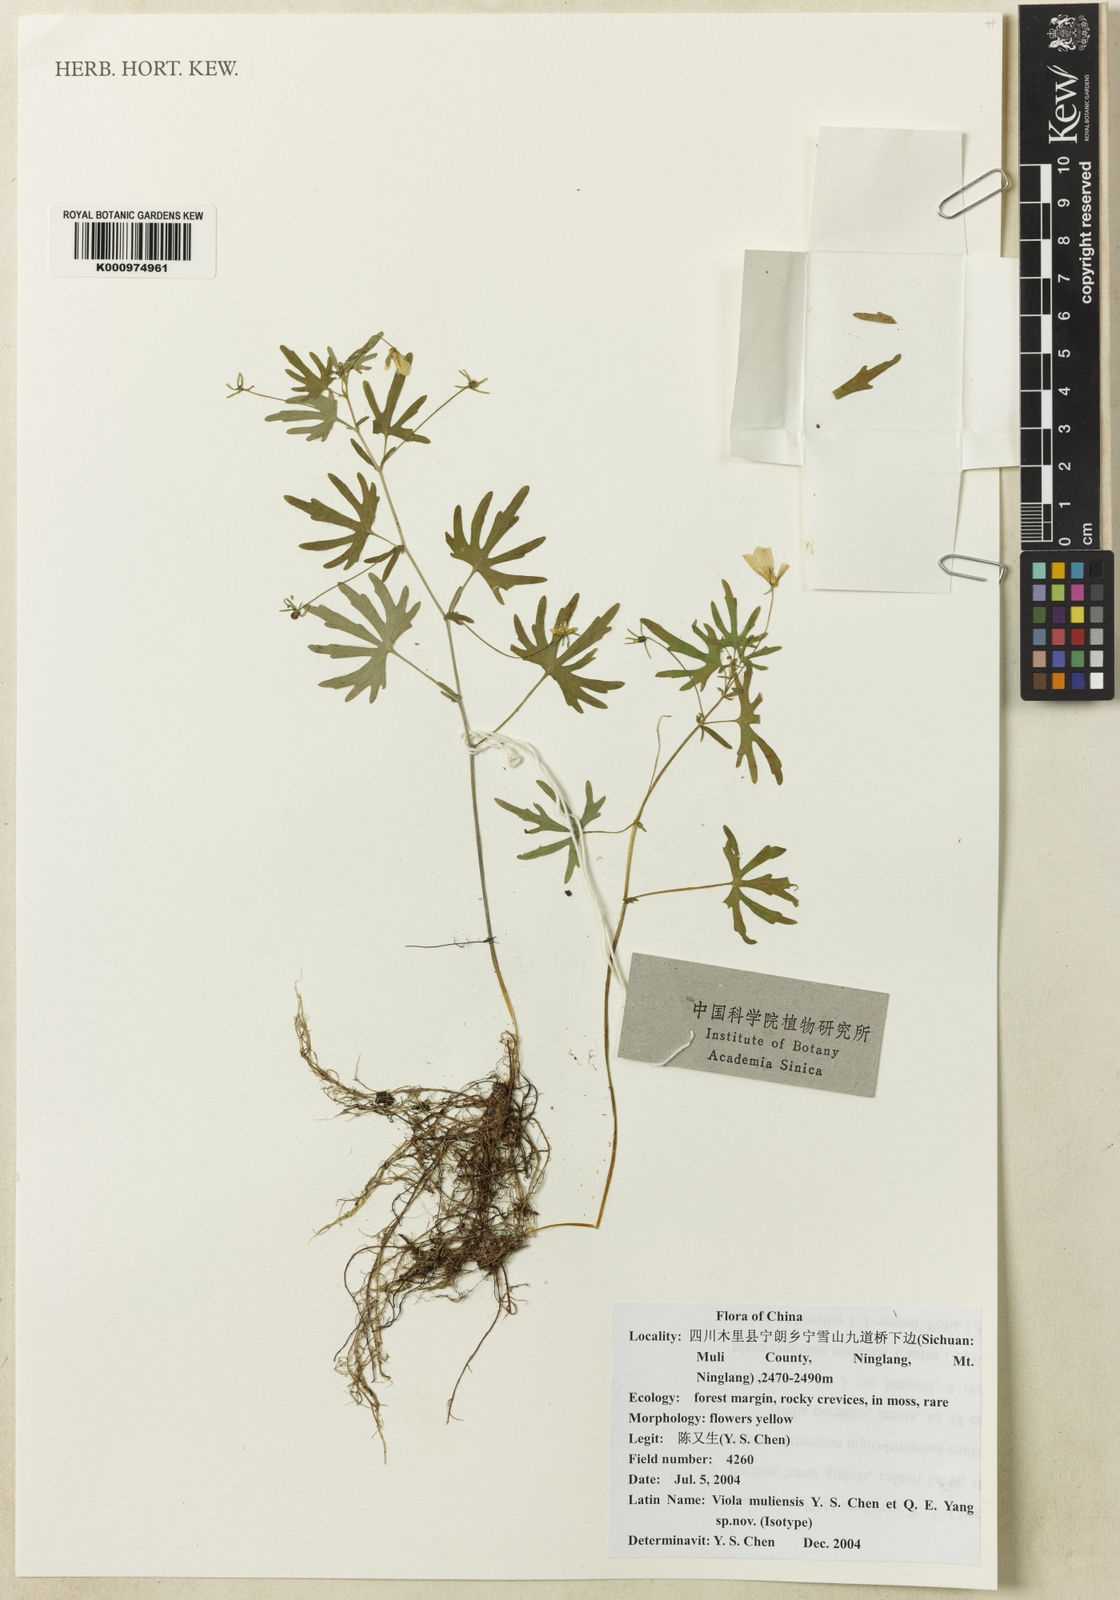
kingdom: Plantae
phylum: Tracheophyta
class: Magnoliopsida
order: Malpighiales
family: Violaceae
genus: Viola
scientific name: Viola muliensis
